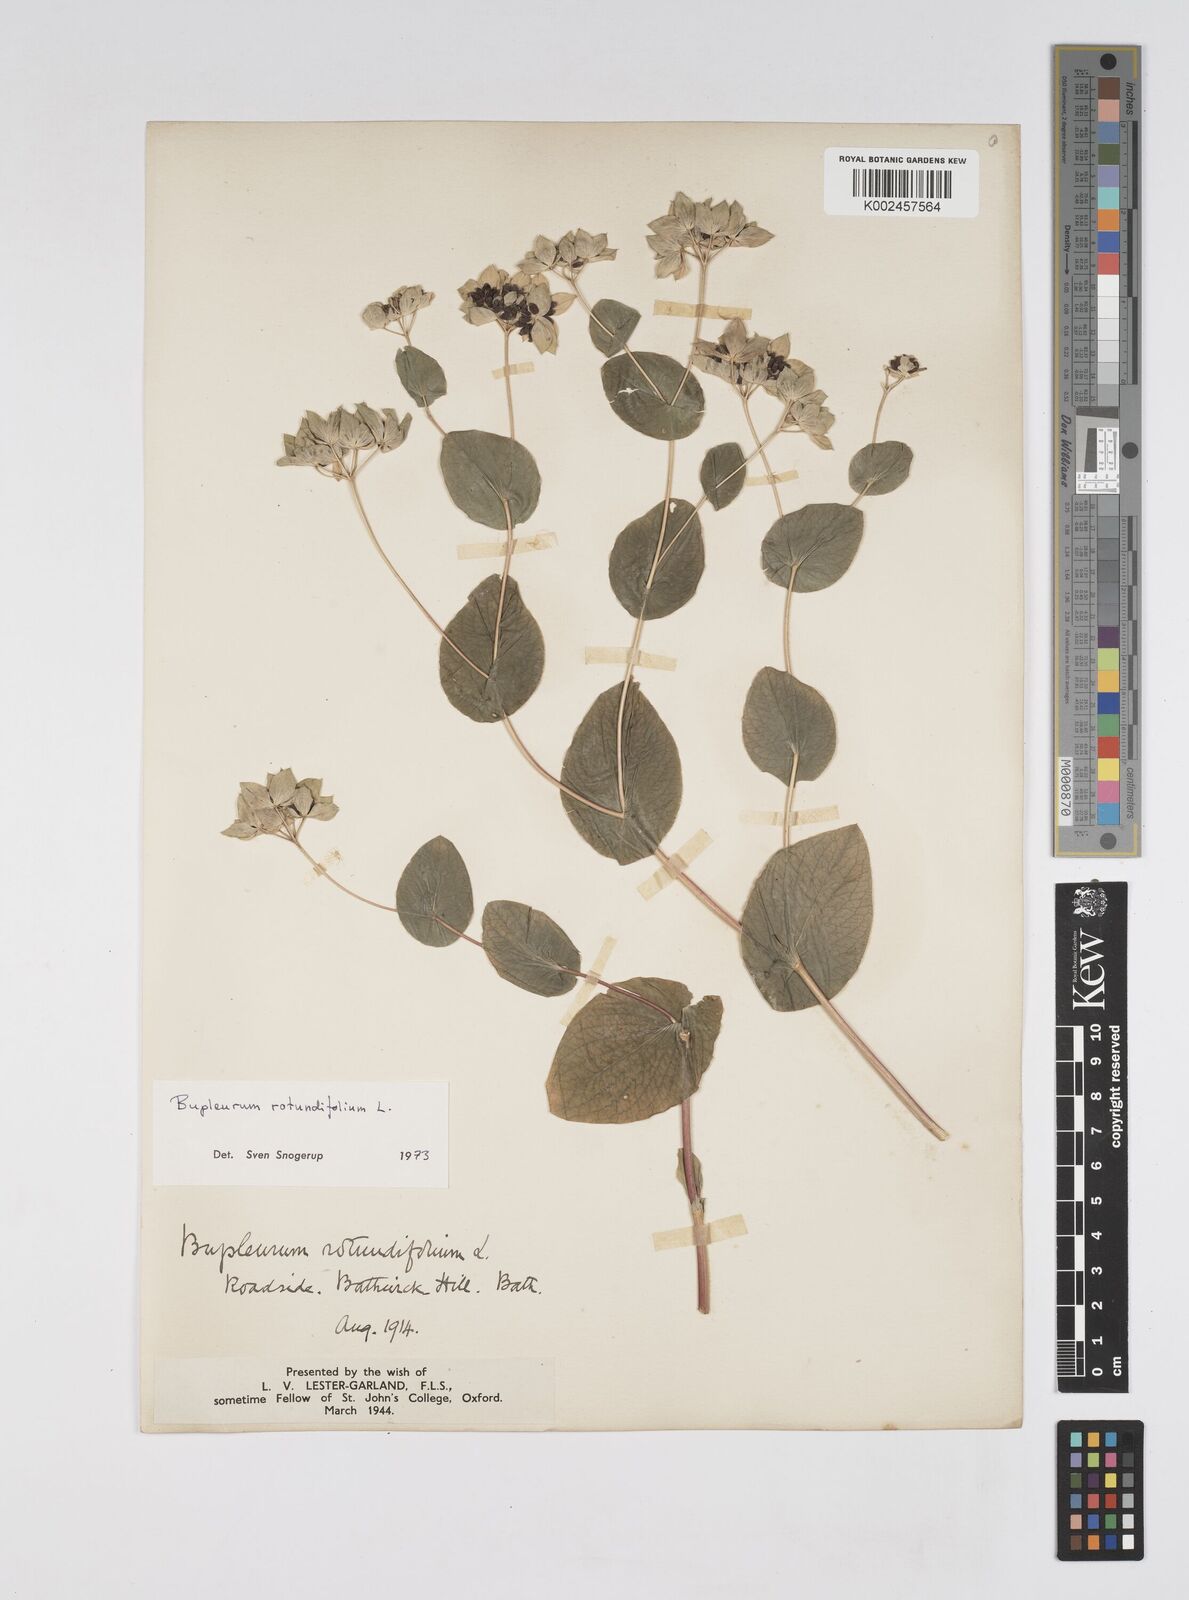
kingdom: Plantae
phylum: Tracheophyta
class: Magnoliopsida
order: Apiales
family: Apiaceae
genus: Bupleurum
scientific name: Bupleurum rotundifolium
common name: Thorow-wax
